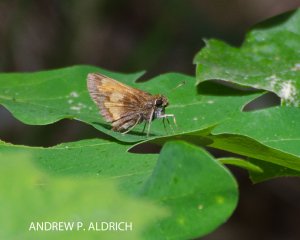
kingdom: Animalia
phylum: Arthropoda
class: Insecta
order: Lepidoptera
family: Hesperiidae
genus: Lon
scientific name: Lon hobomok
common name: Hobomok Skipper
